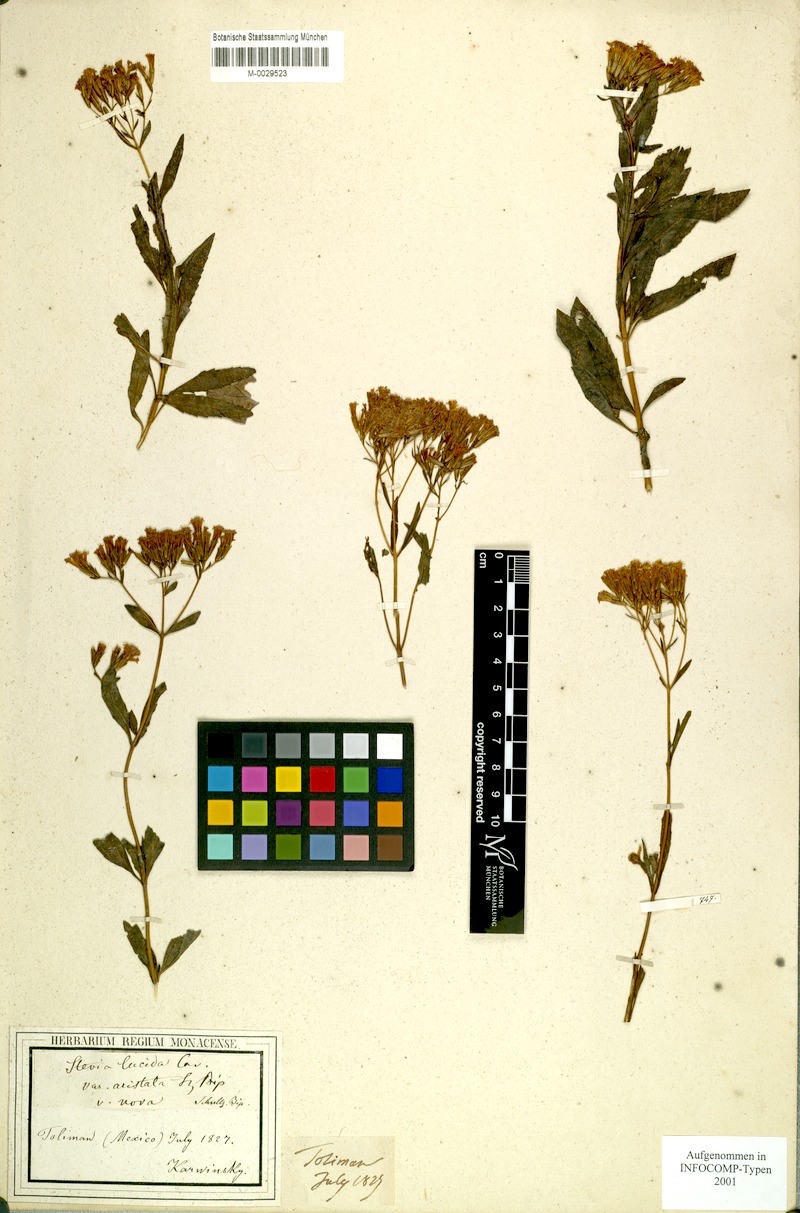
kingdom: Plantae
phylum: Tracheophyta
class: Magnoliopsida
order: Asterales
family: Asteraceae
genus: Stevia
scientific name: Stevia salicifolia
